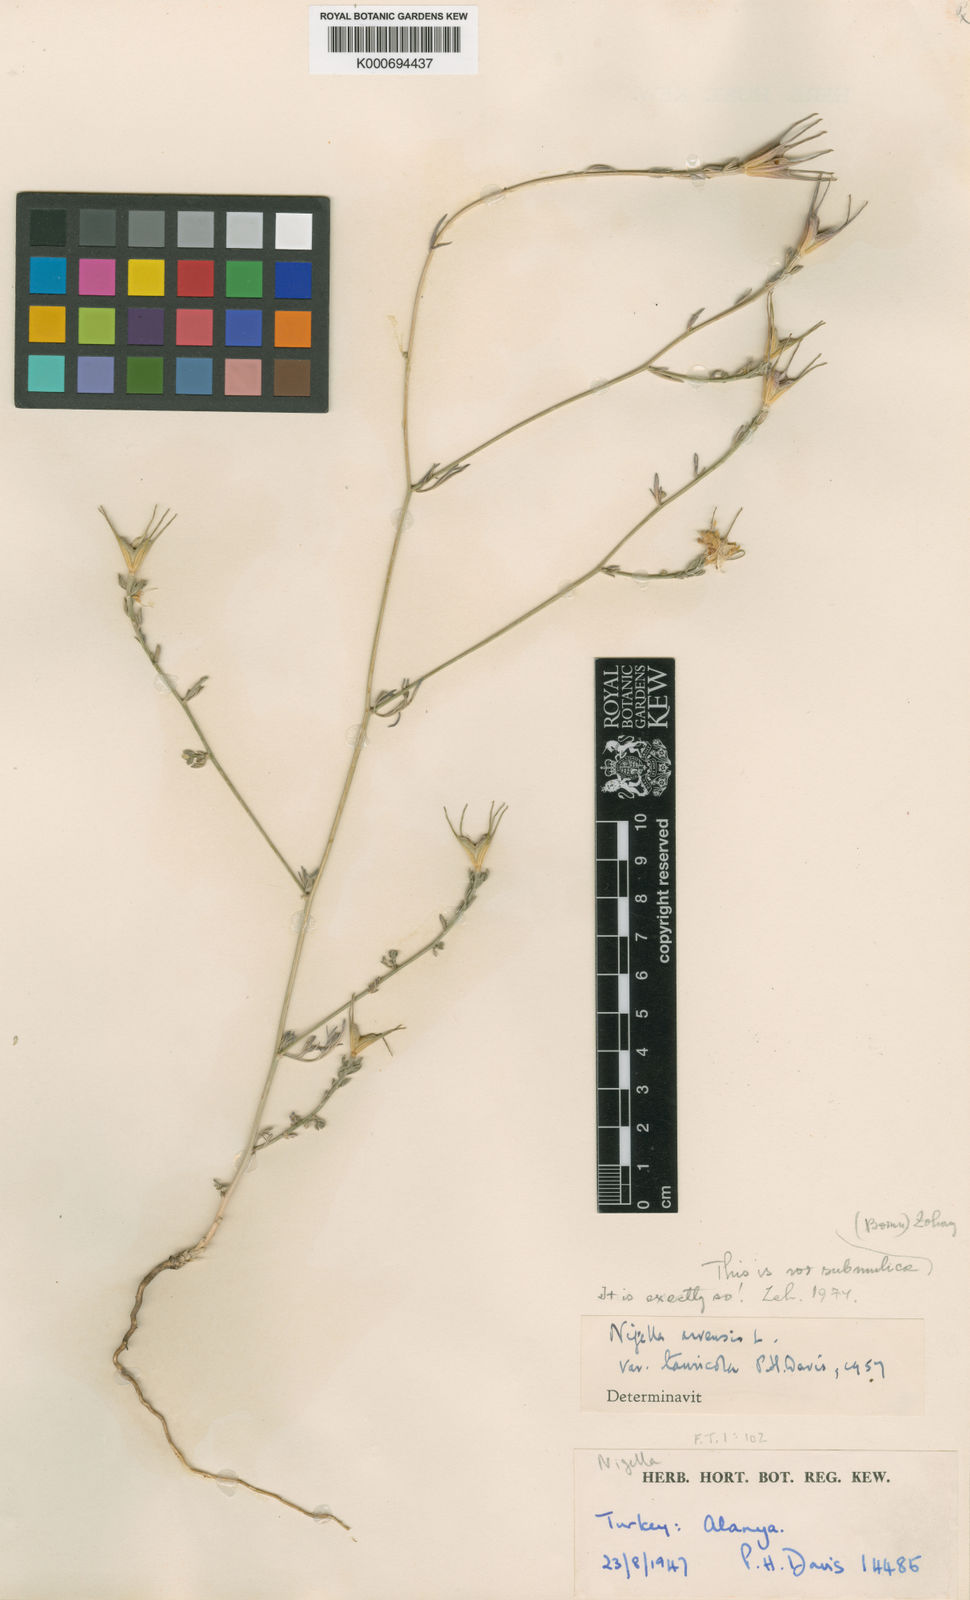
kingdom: Plantae
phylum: Tracheophyta
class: Magnoliopsida
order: Ranunculales
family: Ranunculaceae
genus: Nigella
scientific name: Nigella arvensis
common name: Wild fennel-flower
